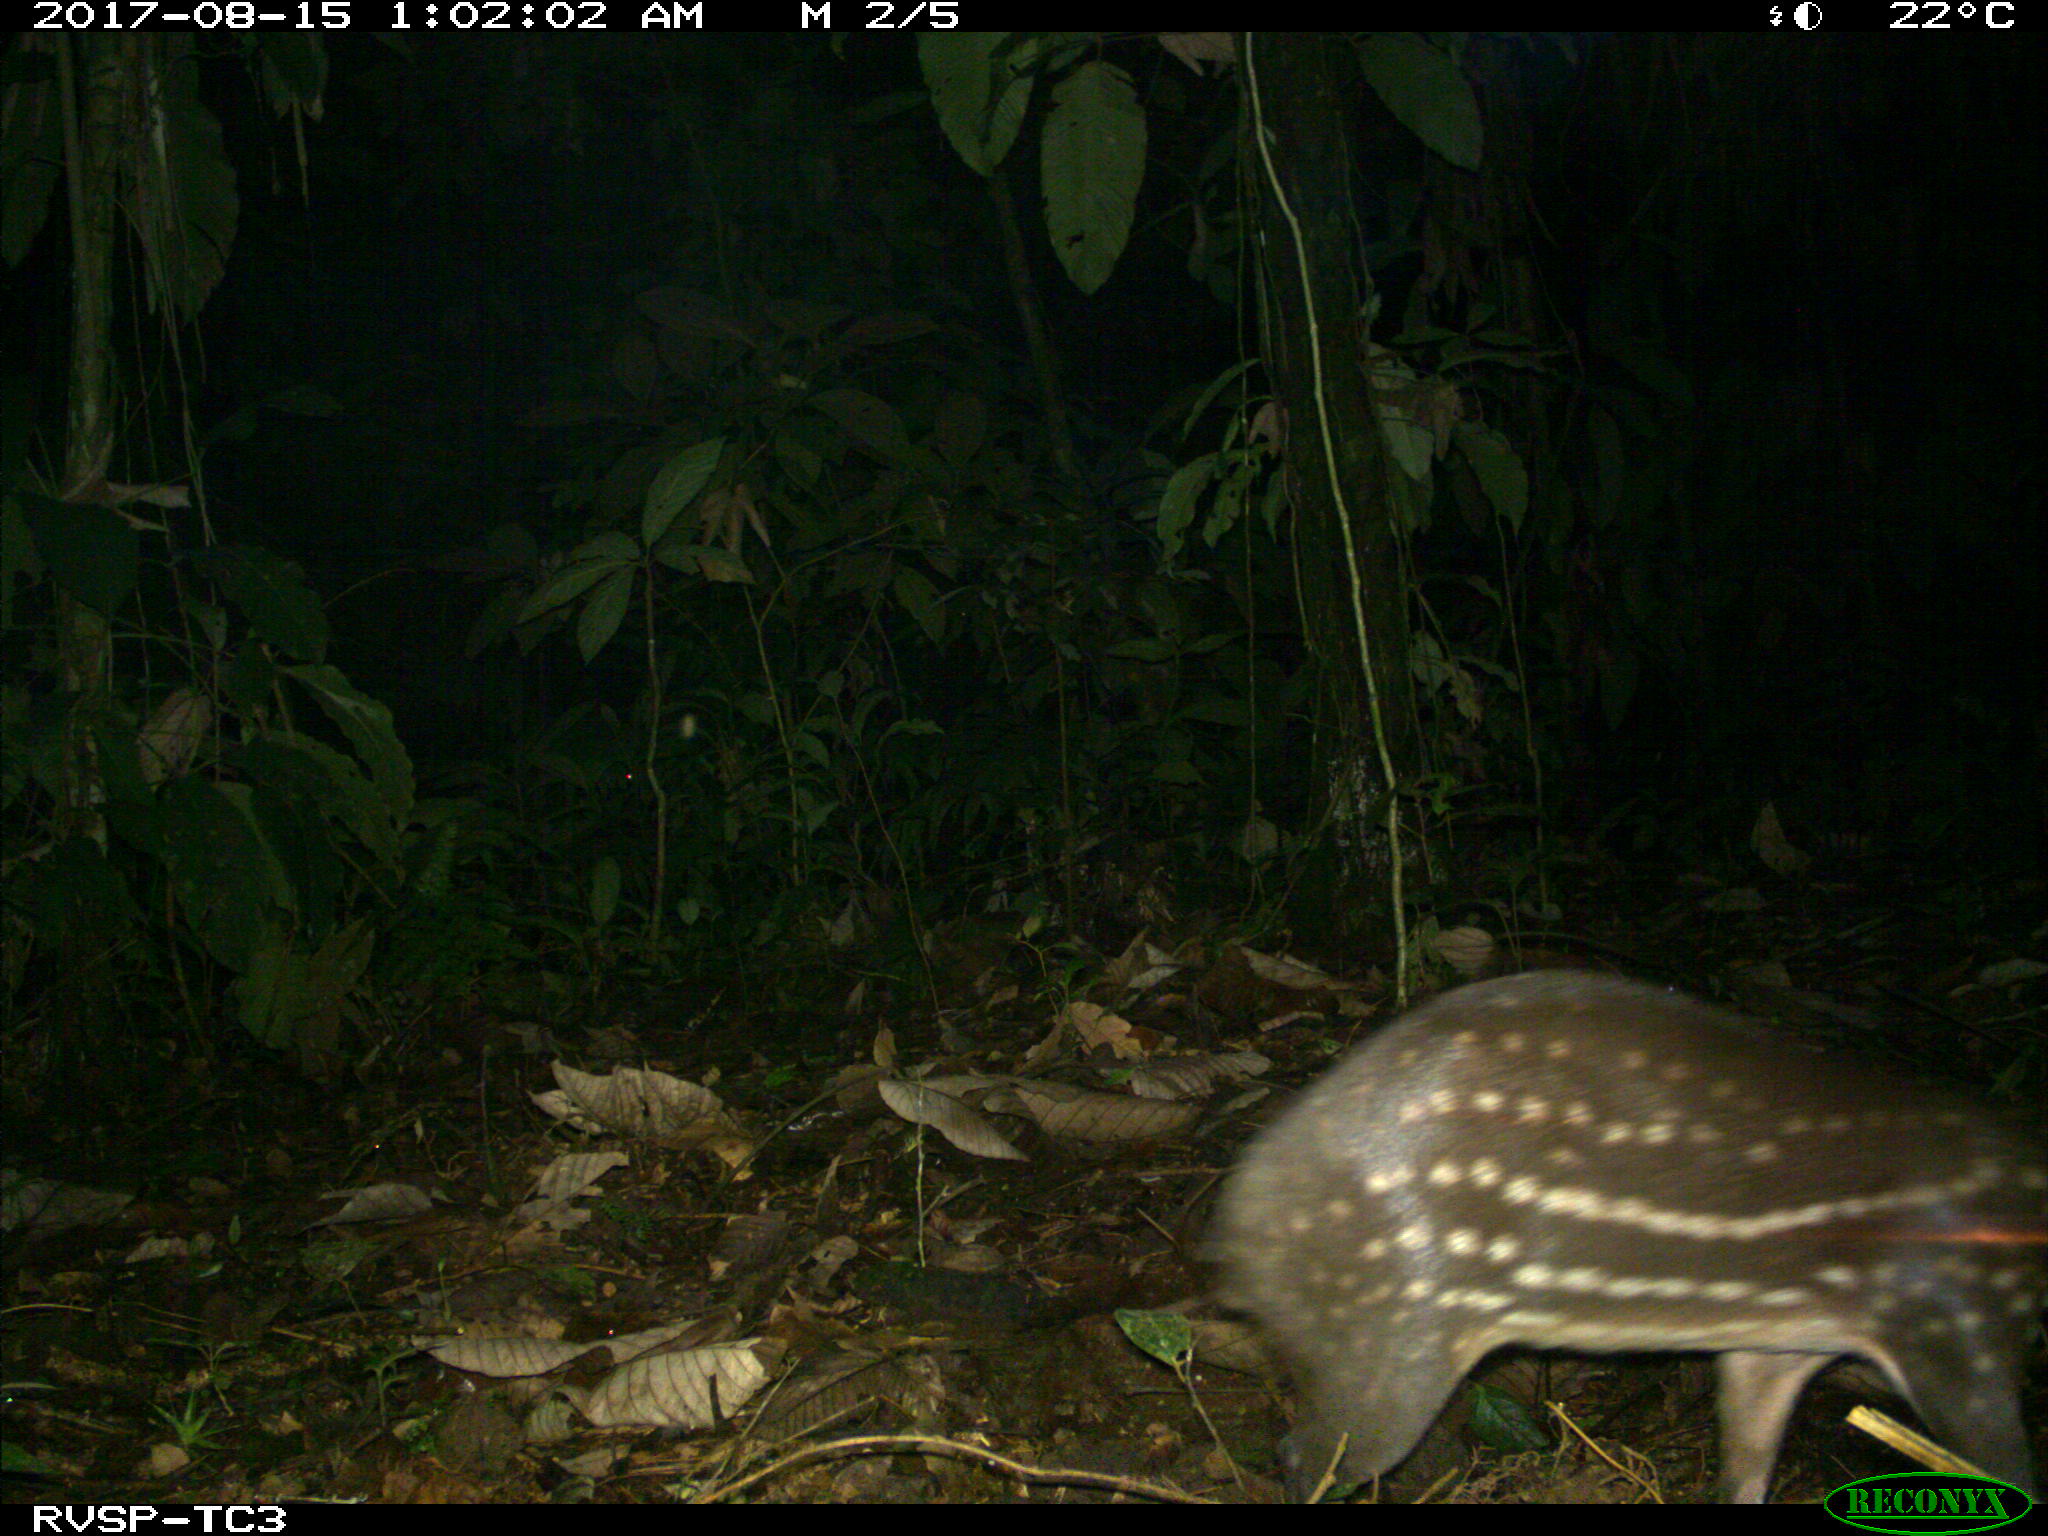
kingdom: Animalia
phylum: Chordata
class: Mammalia
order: Rodentia
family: Cuniculidae
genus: Cuniculus
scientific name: Cuniculus paca
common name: Lowland paca
